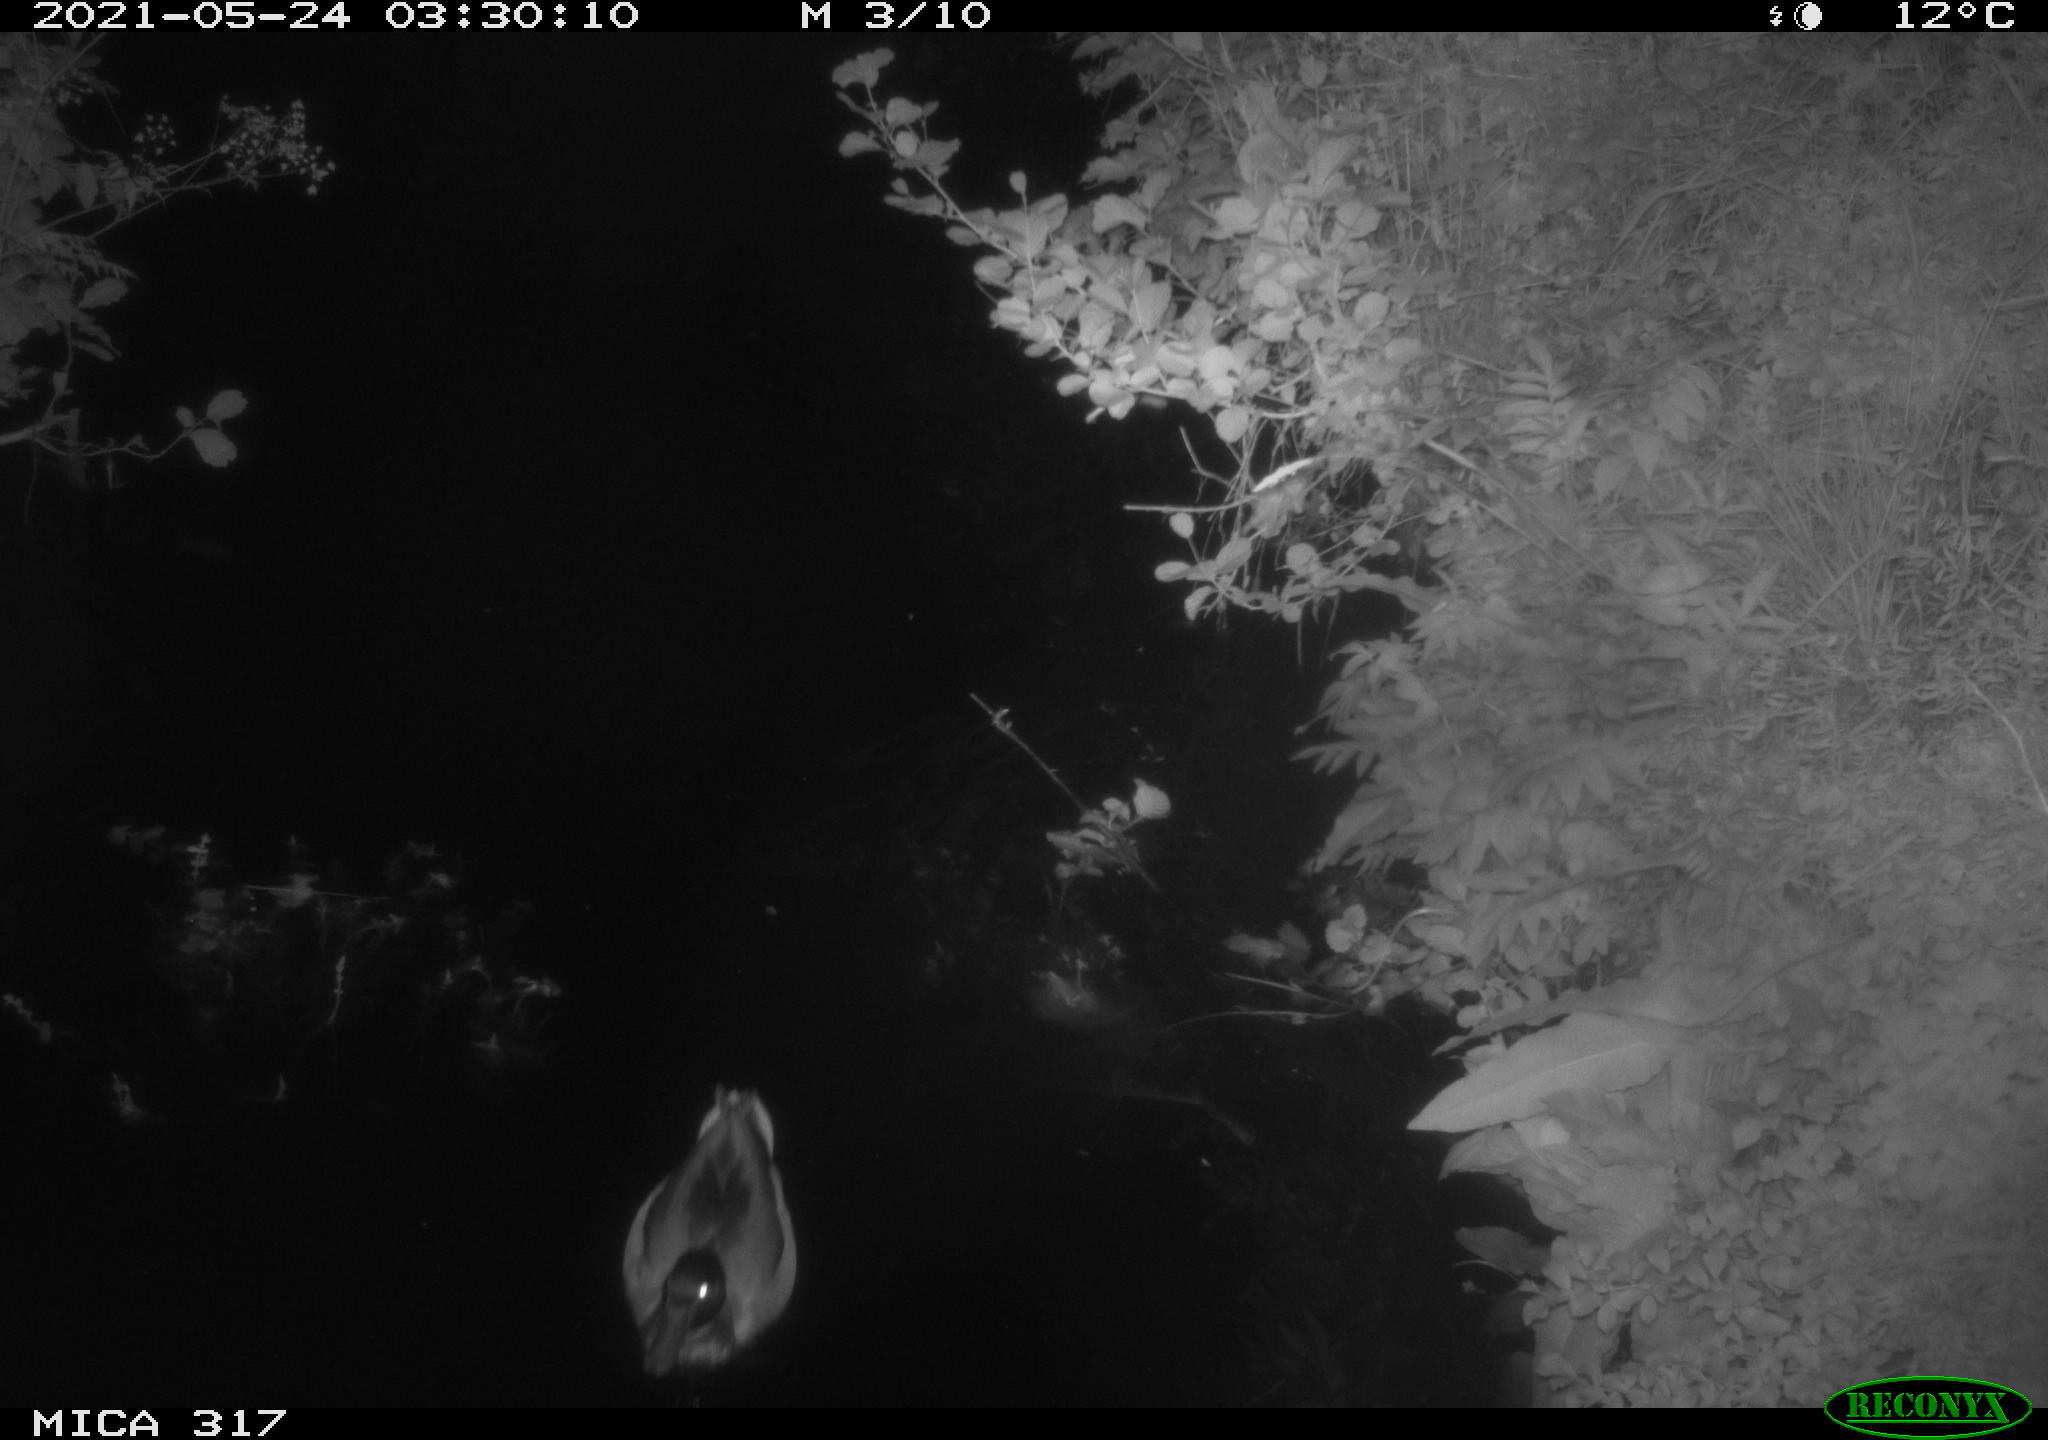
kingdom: Animalia
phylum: Chordata
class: Aves
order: Anseriformes
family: Anatidae
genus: Anas
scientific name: Anas
